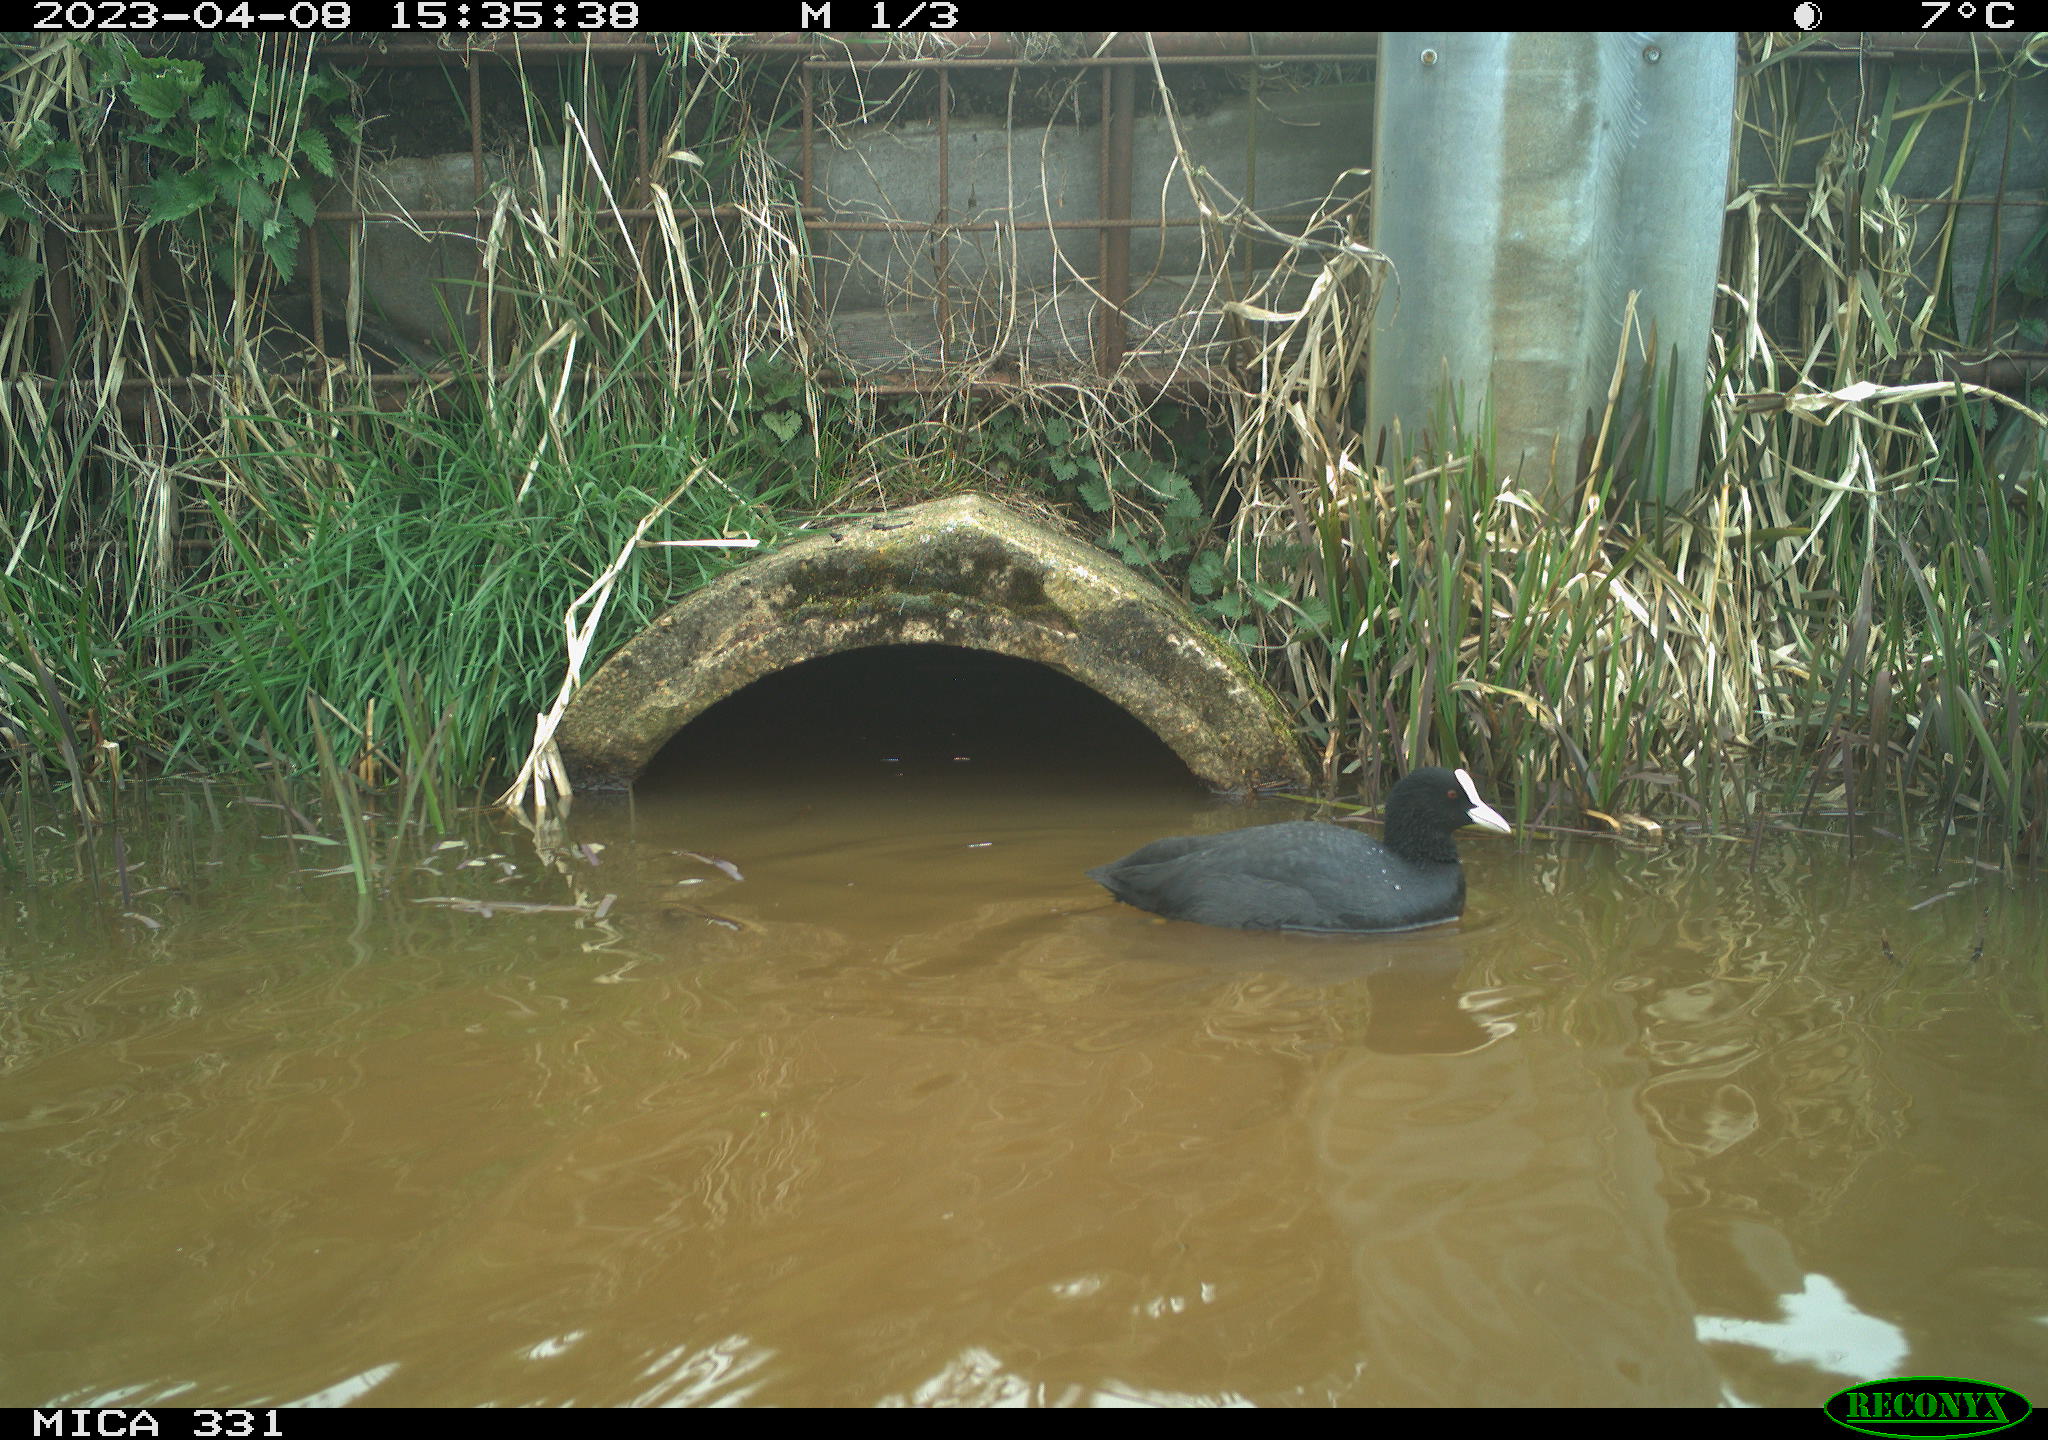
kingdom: Animalia
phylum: Chordata
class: Aves
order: Gruiformes
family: Rallidae
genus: Fulica
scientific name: Fulica atra
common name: Eurasian coot
